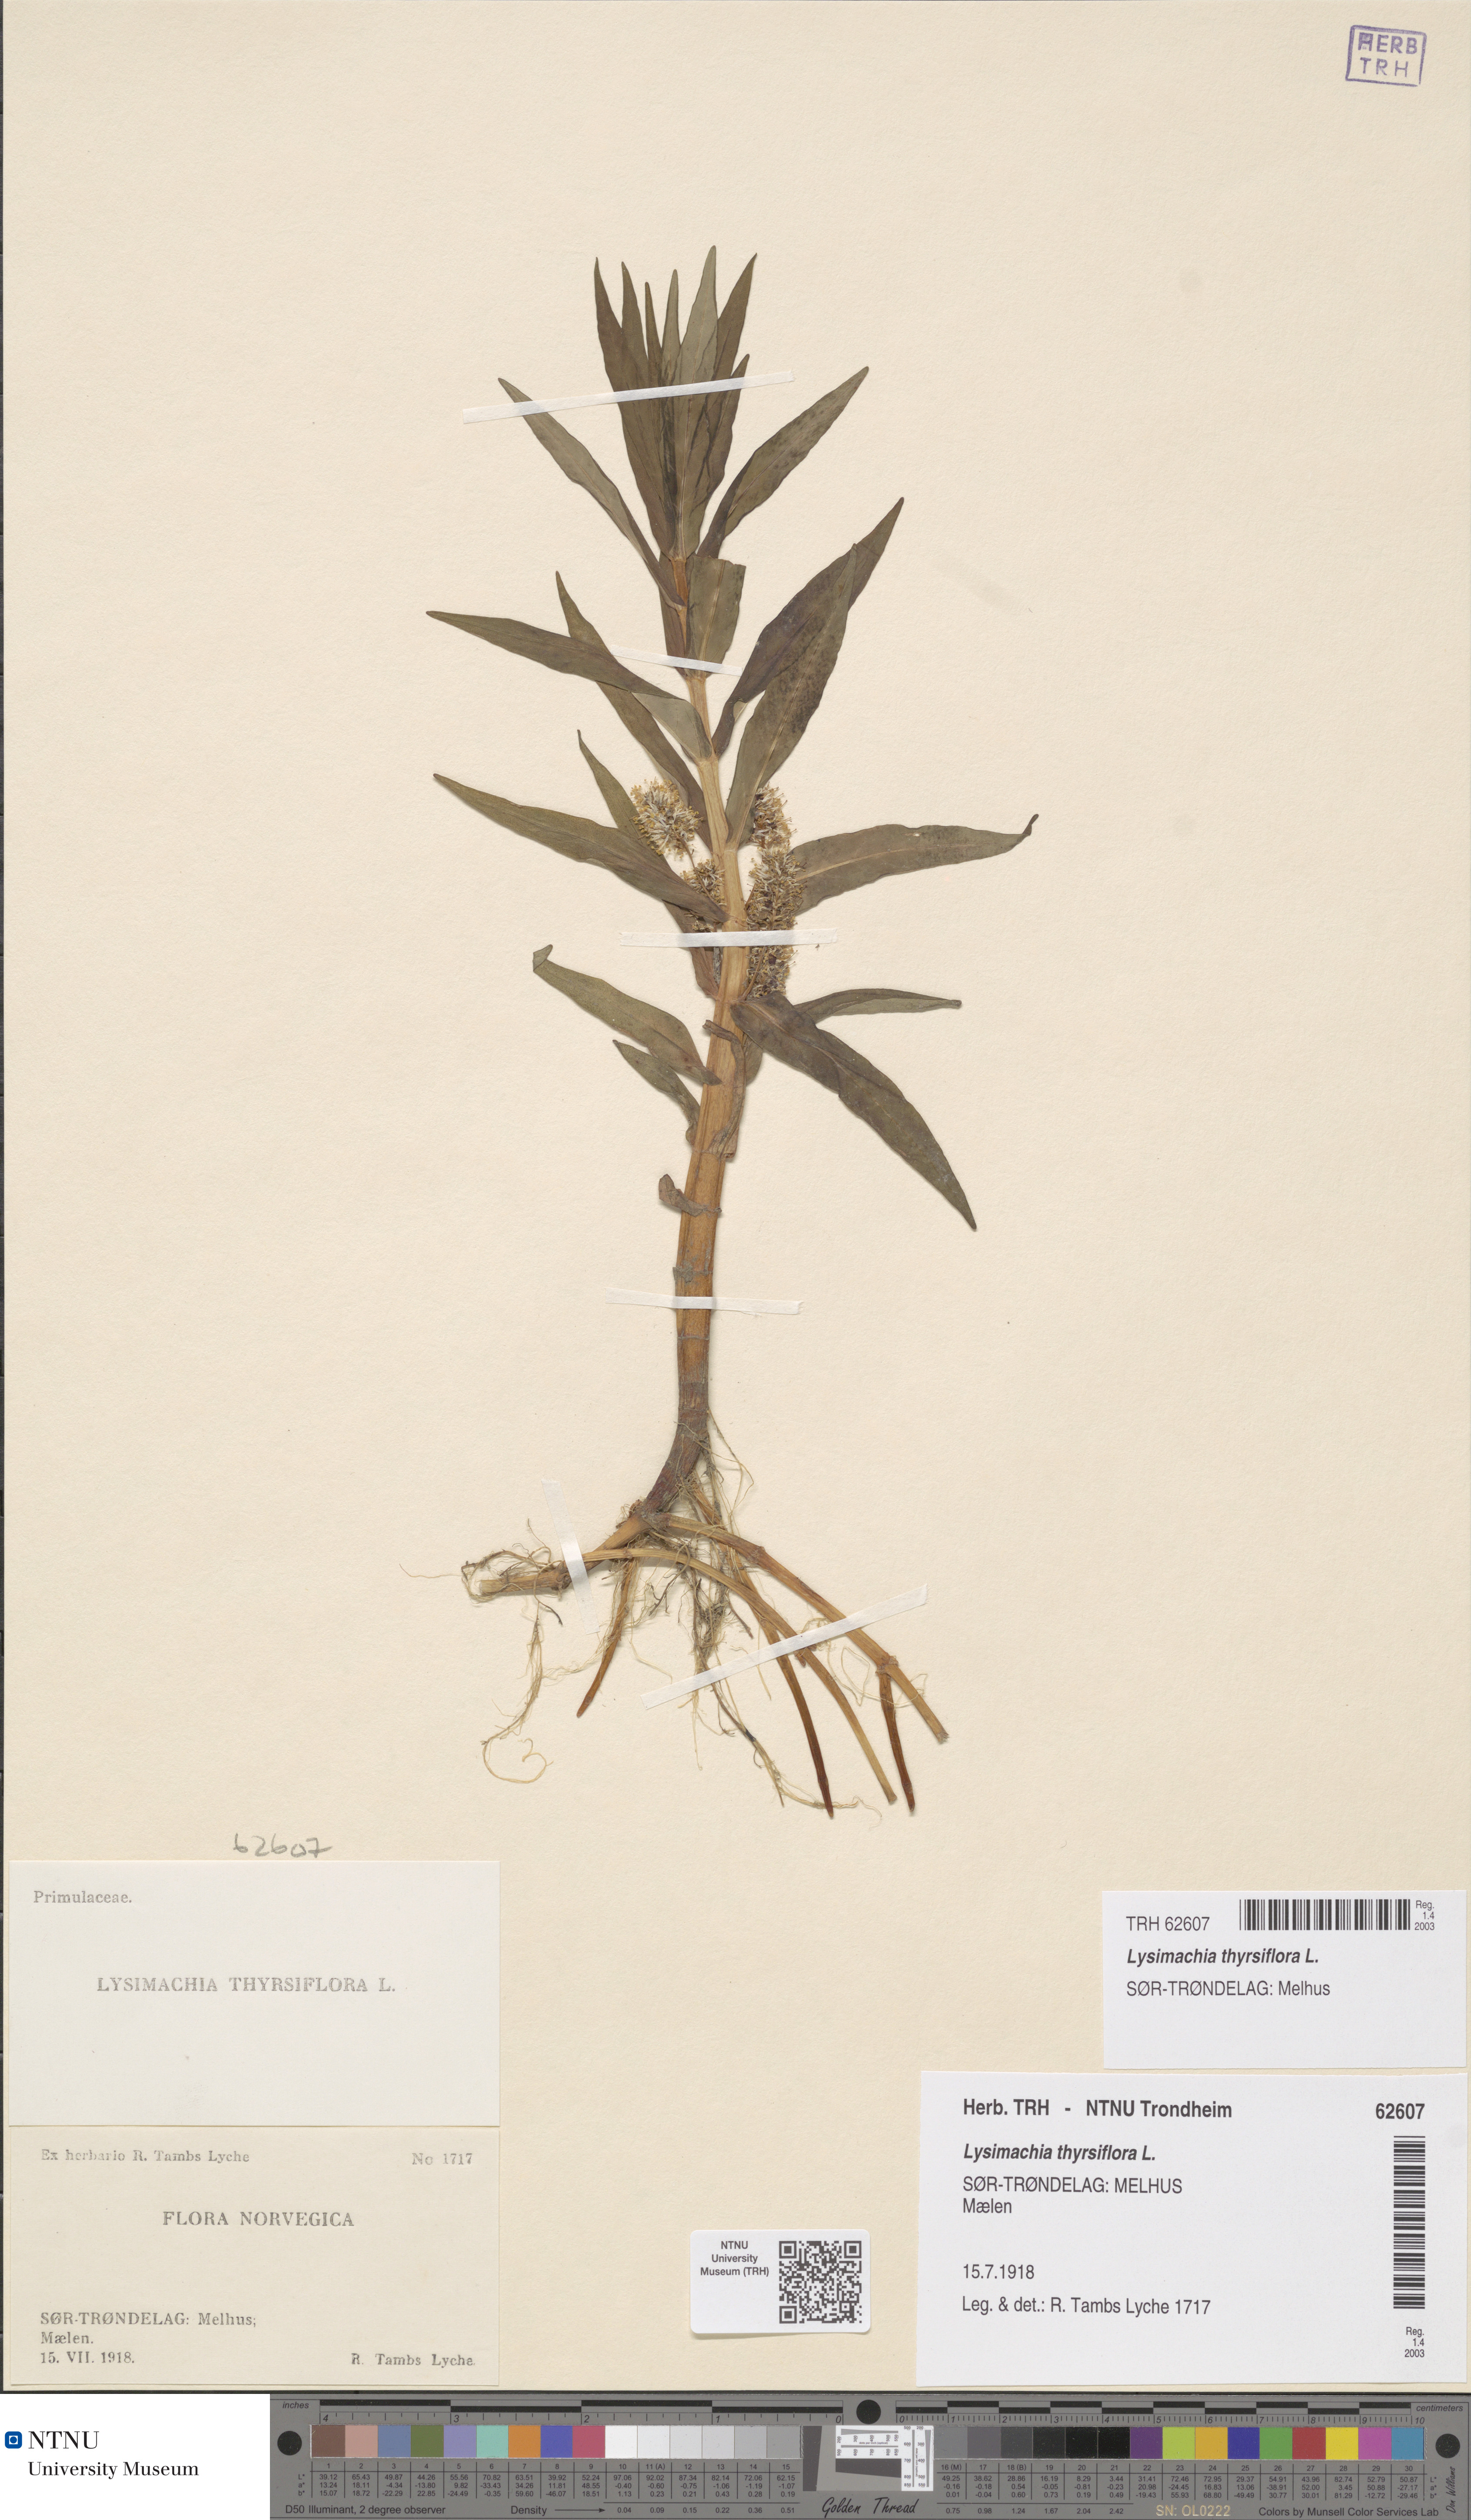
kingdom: Plantae
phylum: Tracheophyta
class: Magnoliopsida
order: Ericales
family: Primulaceae
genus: Lysimachia
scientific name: Lysimachia thyrsiflora
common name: Tufted loosestrife
